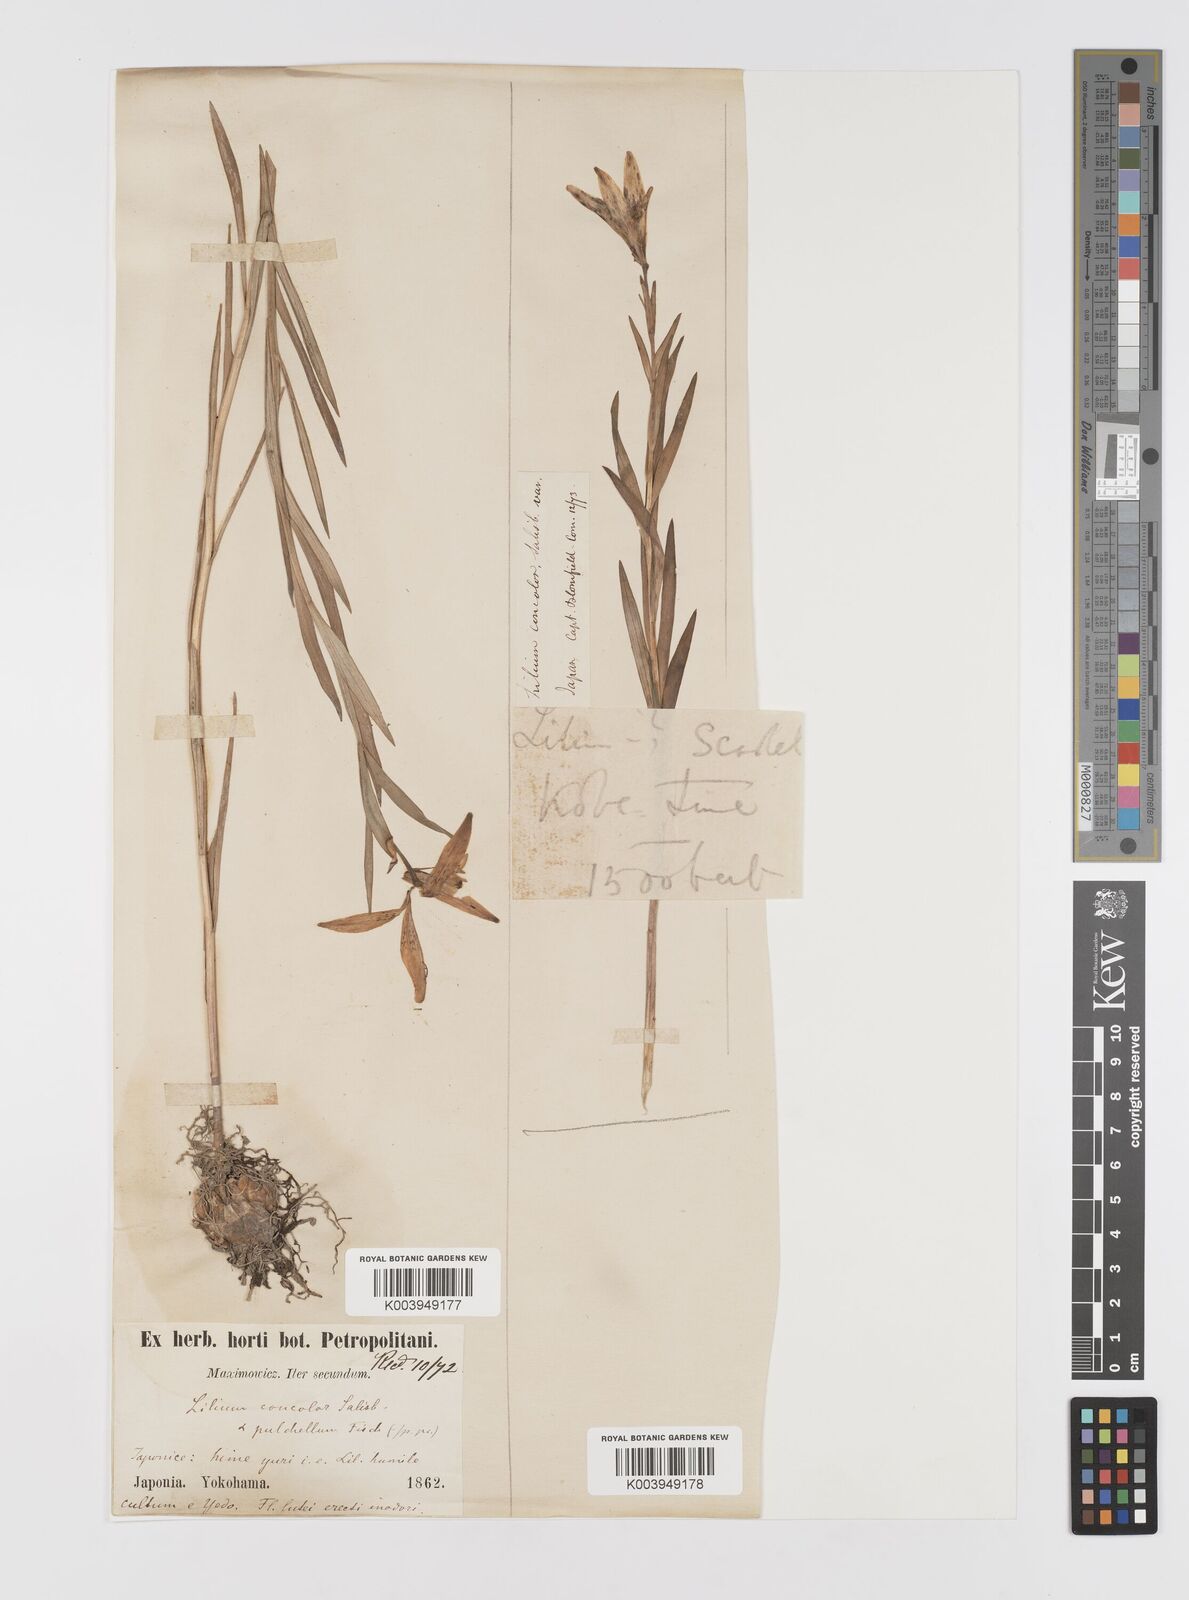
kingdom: Plantae
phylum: Tracheophyta
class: Liliopsida
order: Liliales
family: Liliaceae
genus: Lilium
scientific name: Lilium concolor
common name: Morning-star lily
